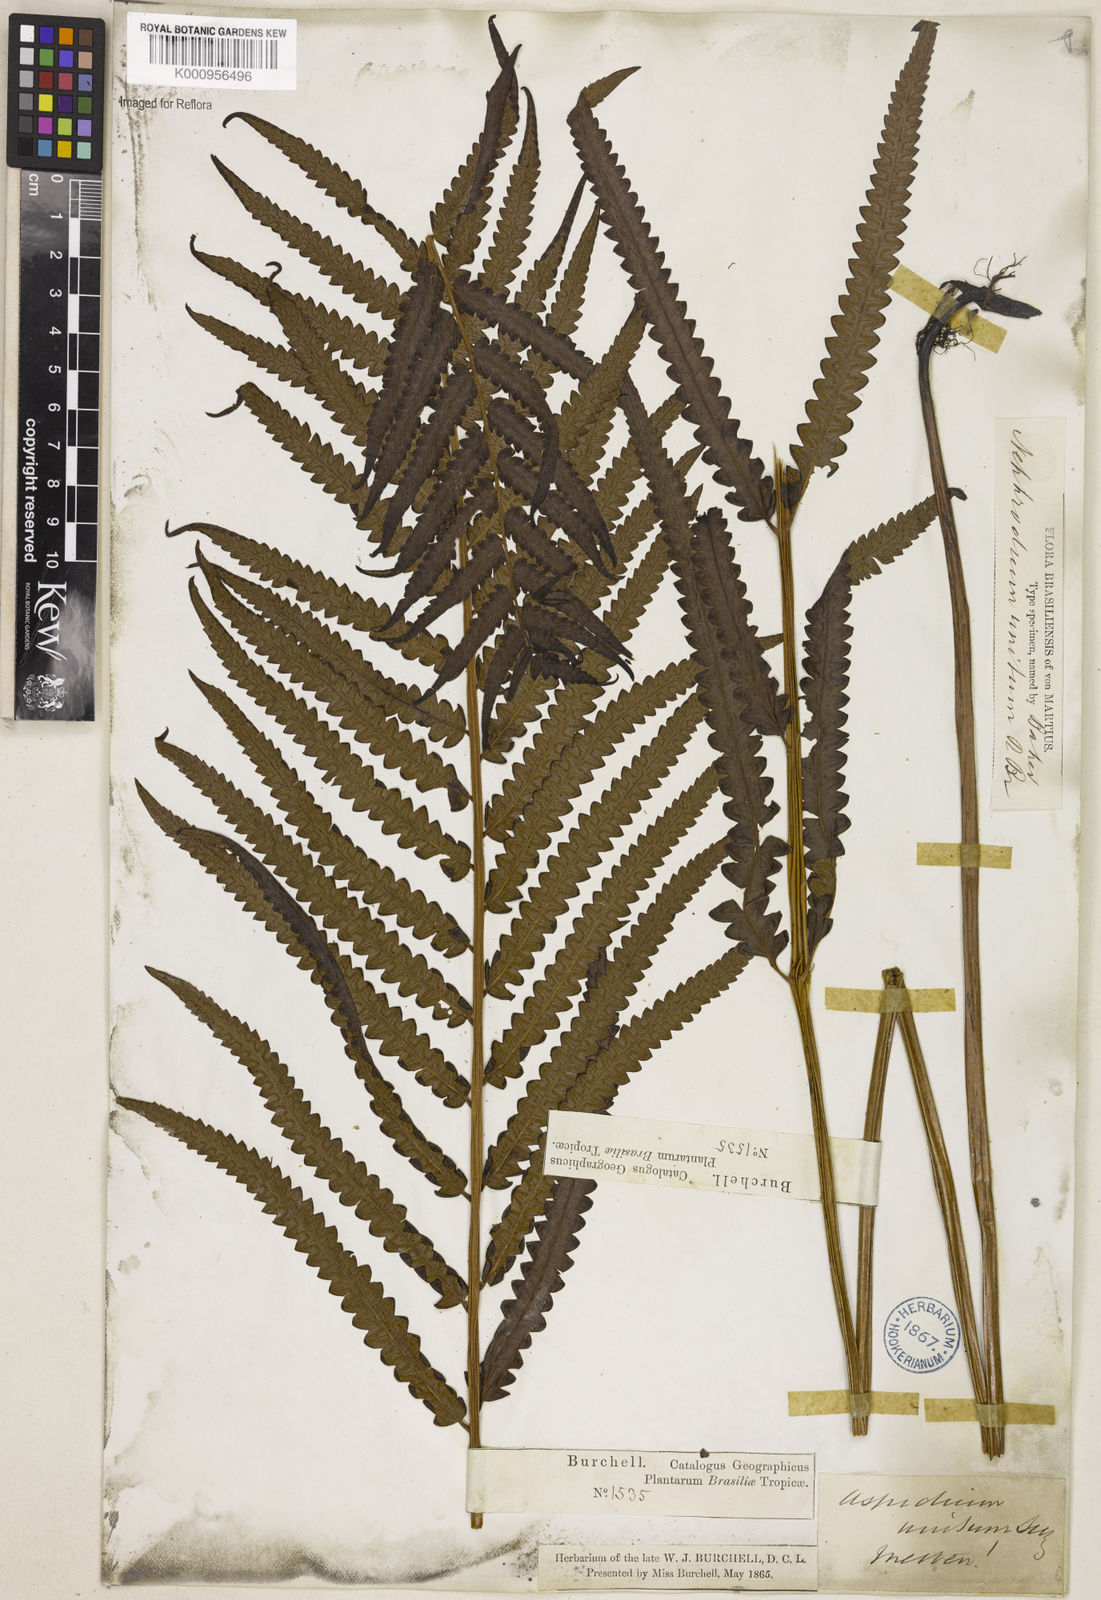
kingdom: Plantae
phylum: Tracheophyta
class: Polypodiopsida
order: Polypodiales
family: Thelypteridaceae
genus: Cyclosorus
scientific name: Cyclosorus interruptus
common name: Neke fern
